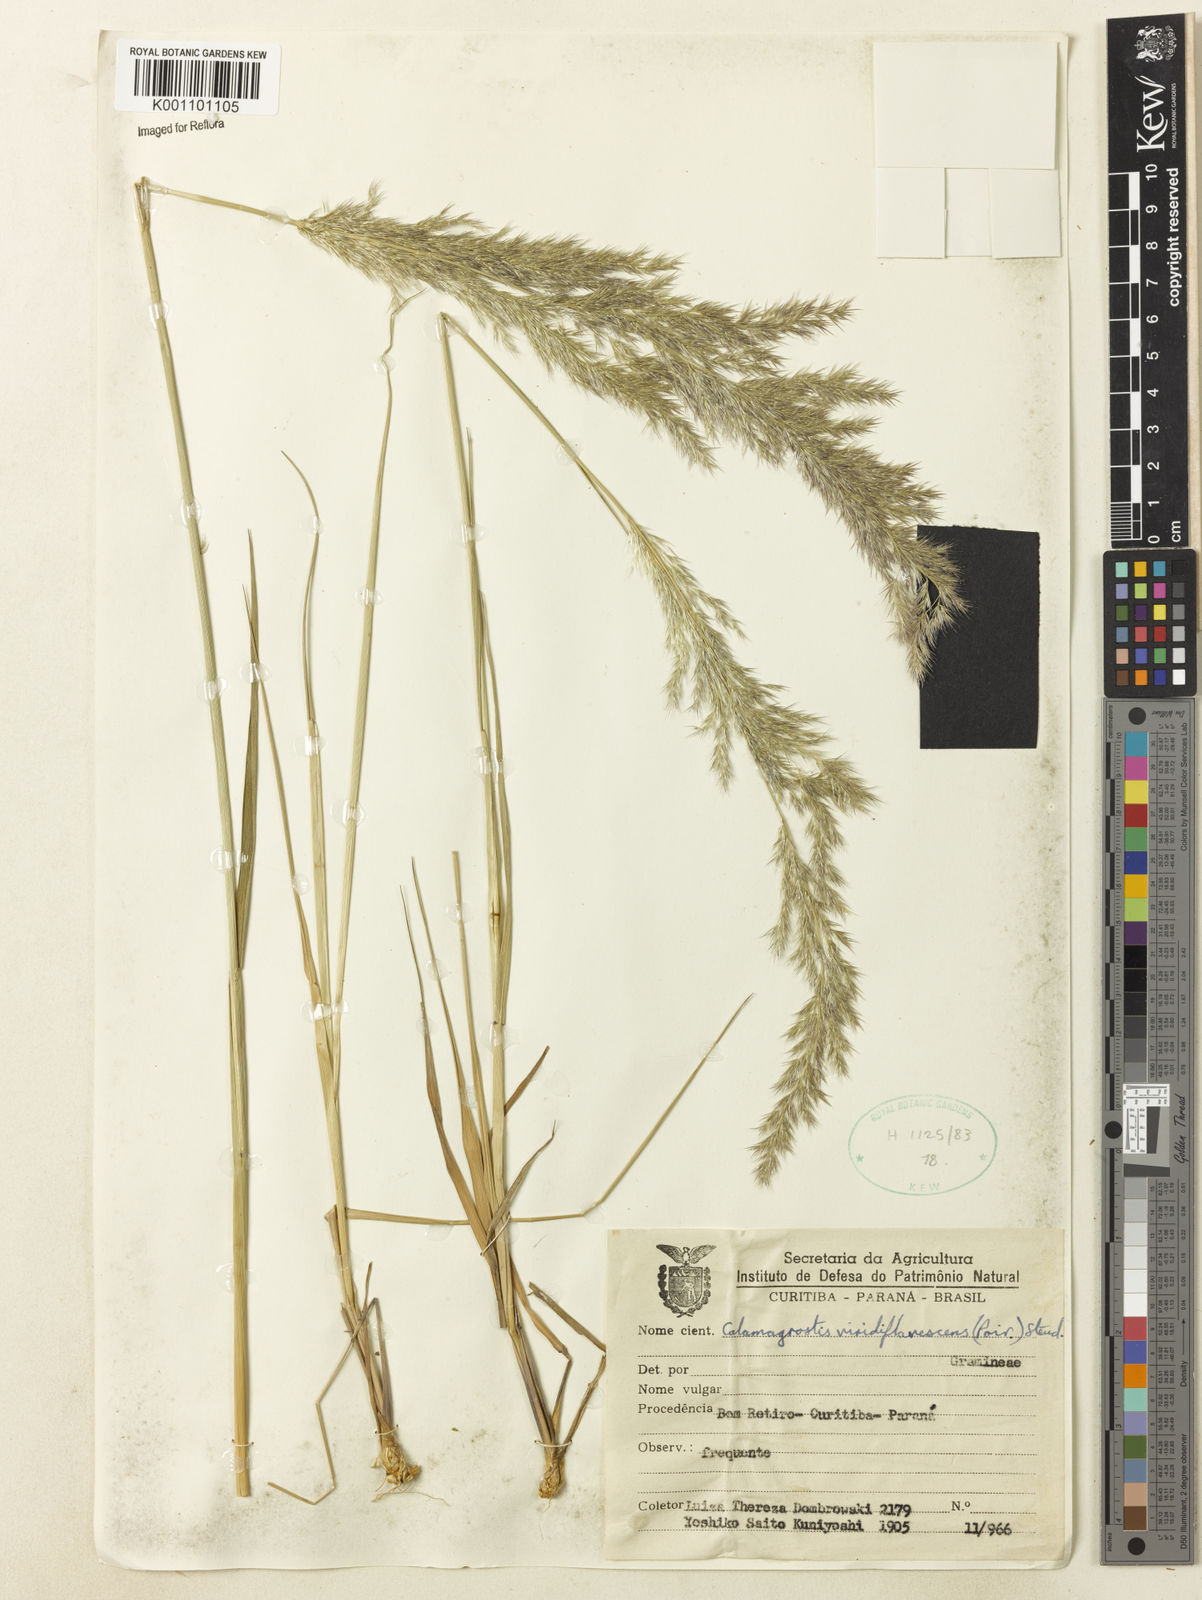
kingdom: Plantae
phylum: Tracheophyta
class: Liliopsida
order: Poales
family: Poaceae
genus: Cinnagrostis
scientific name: Cinnagrostis viridiflavescens
